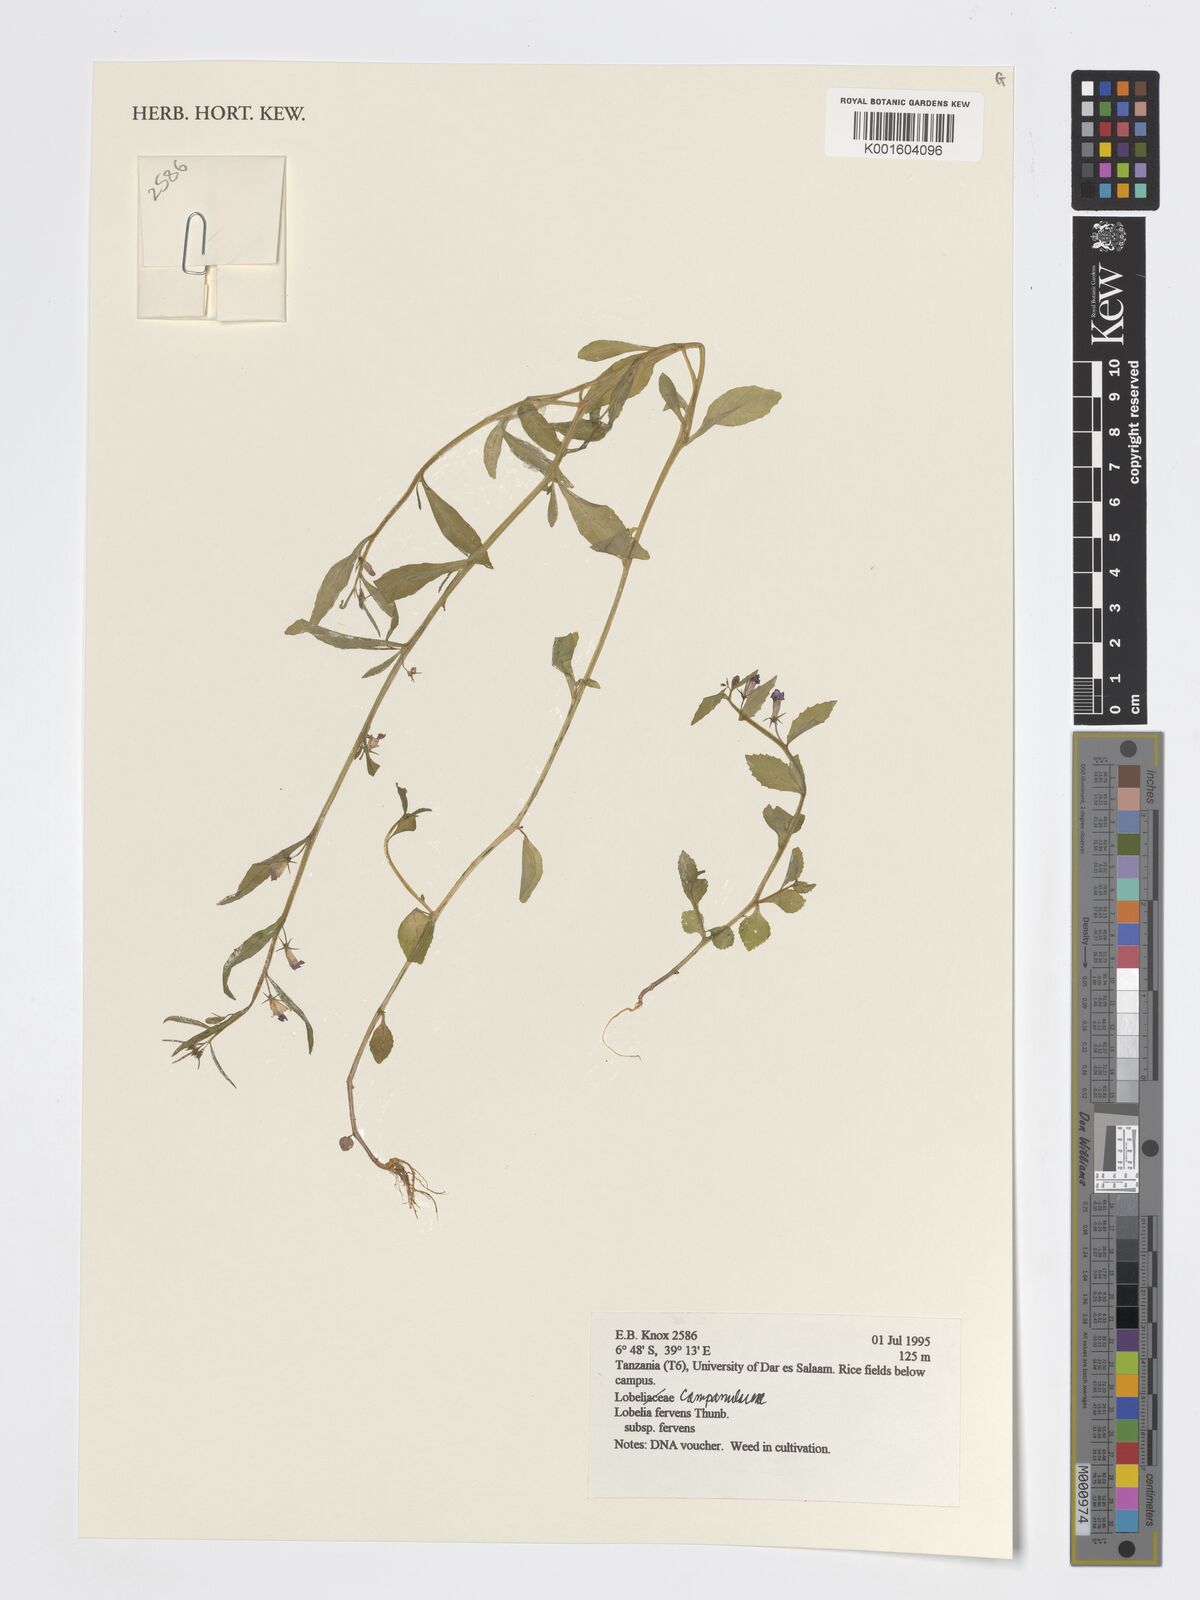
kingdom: Plantae
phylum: Tracheophyta
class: Magnoliopsida
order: Asterales
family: Campanulaceae
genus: Lobelia
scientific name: Lobelia fervens
